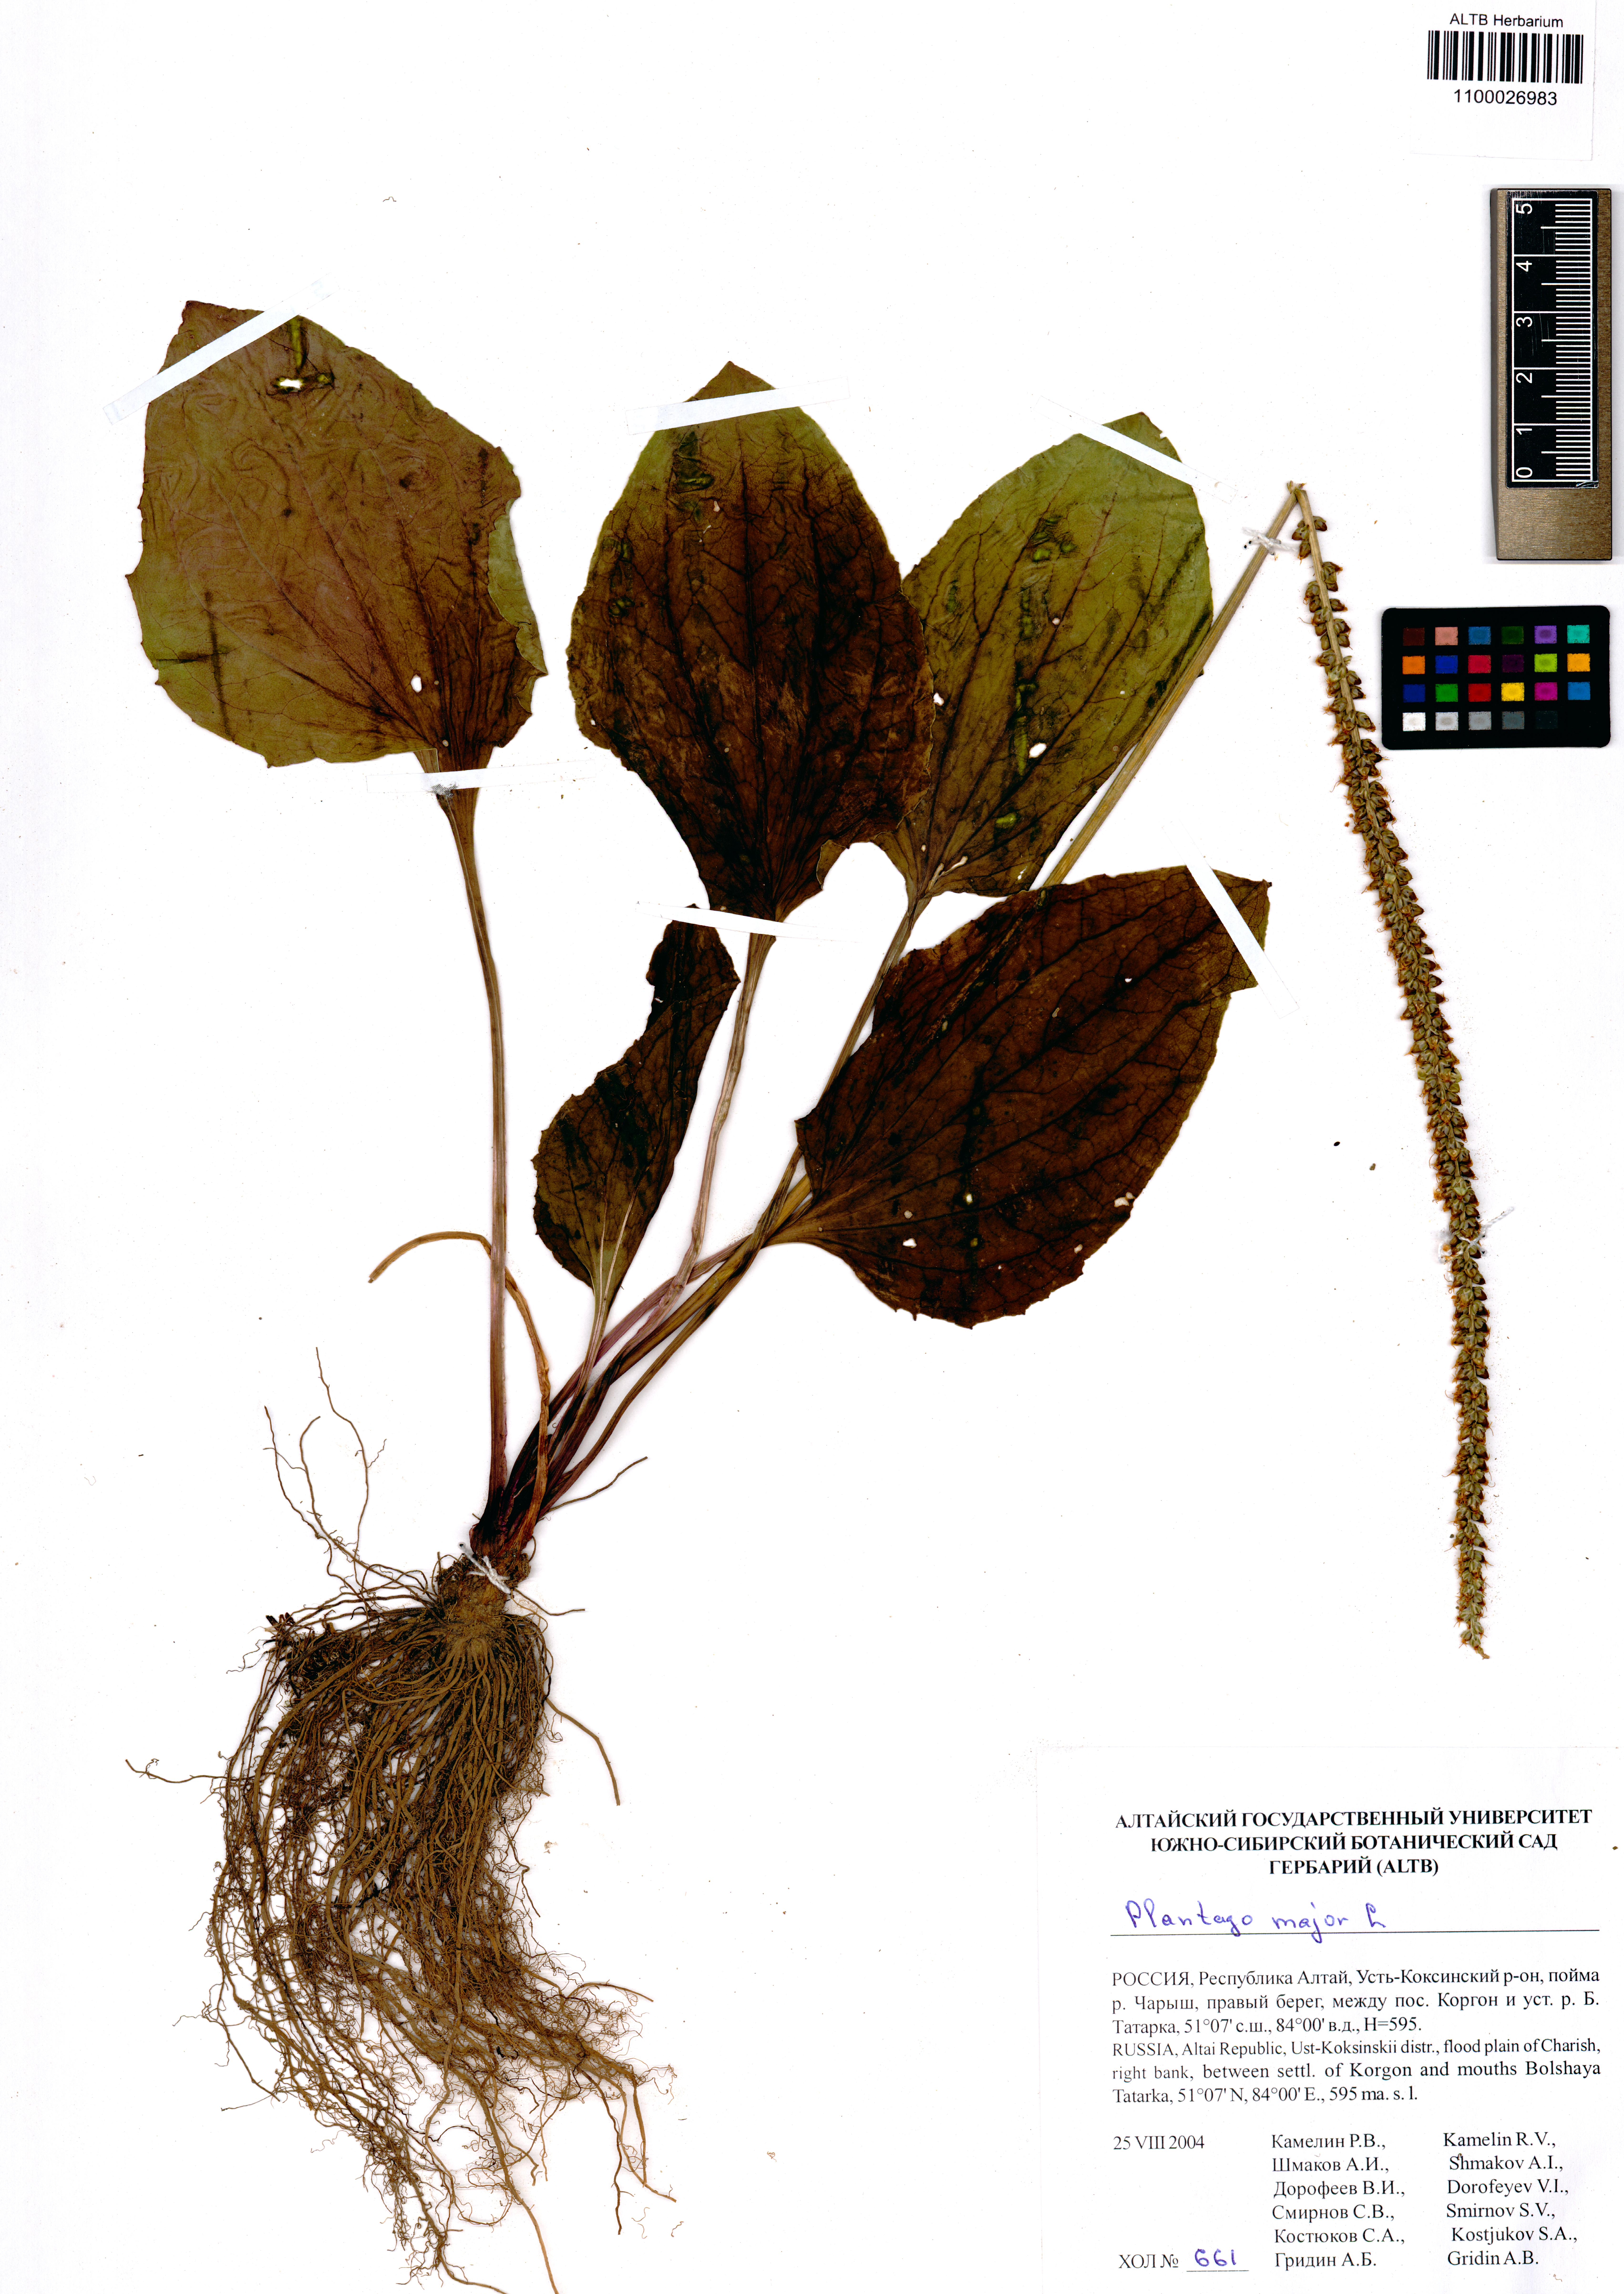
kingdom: Plantae
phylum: Tracheophyta
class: Magnoliopsida
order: Lamiales
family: Plantaginaceae
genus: Plantago
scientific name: Plantago major
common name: Common plantain
